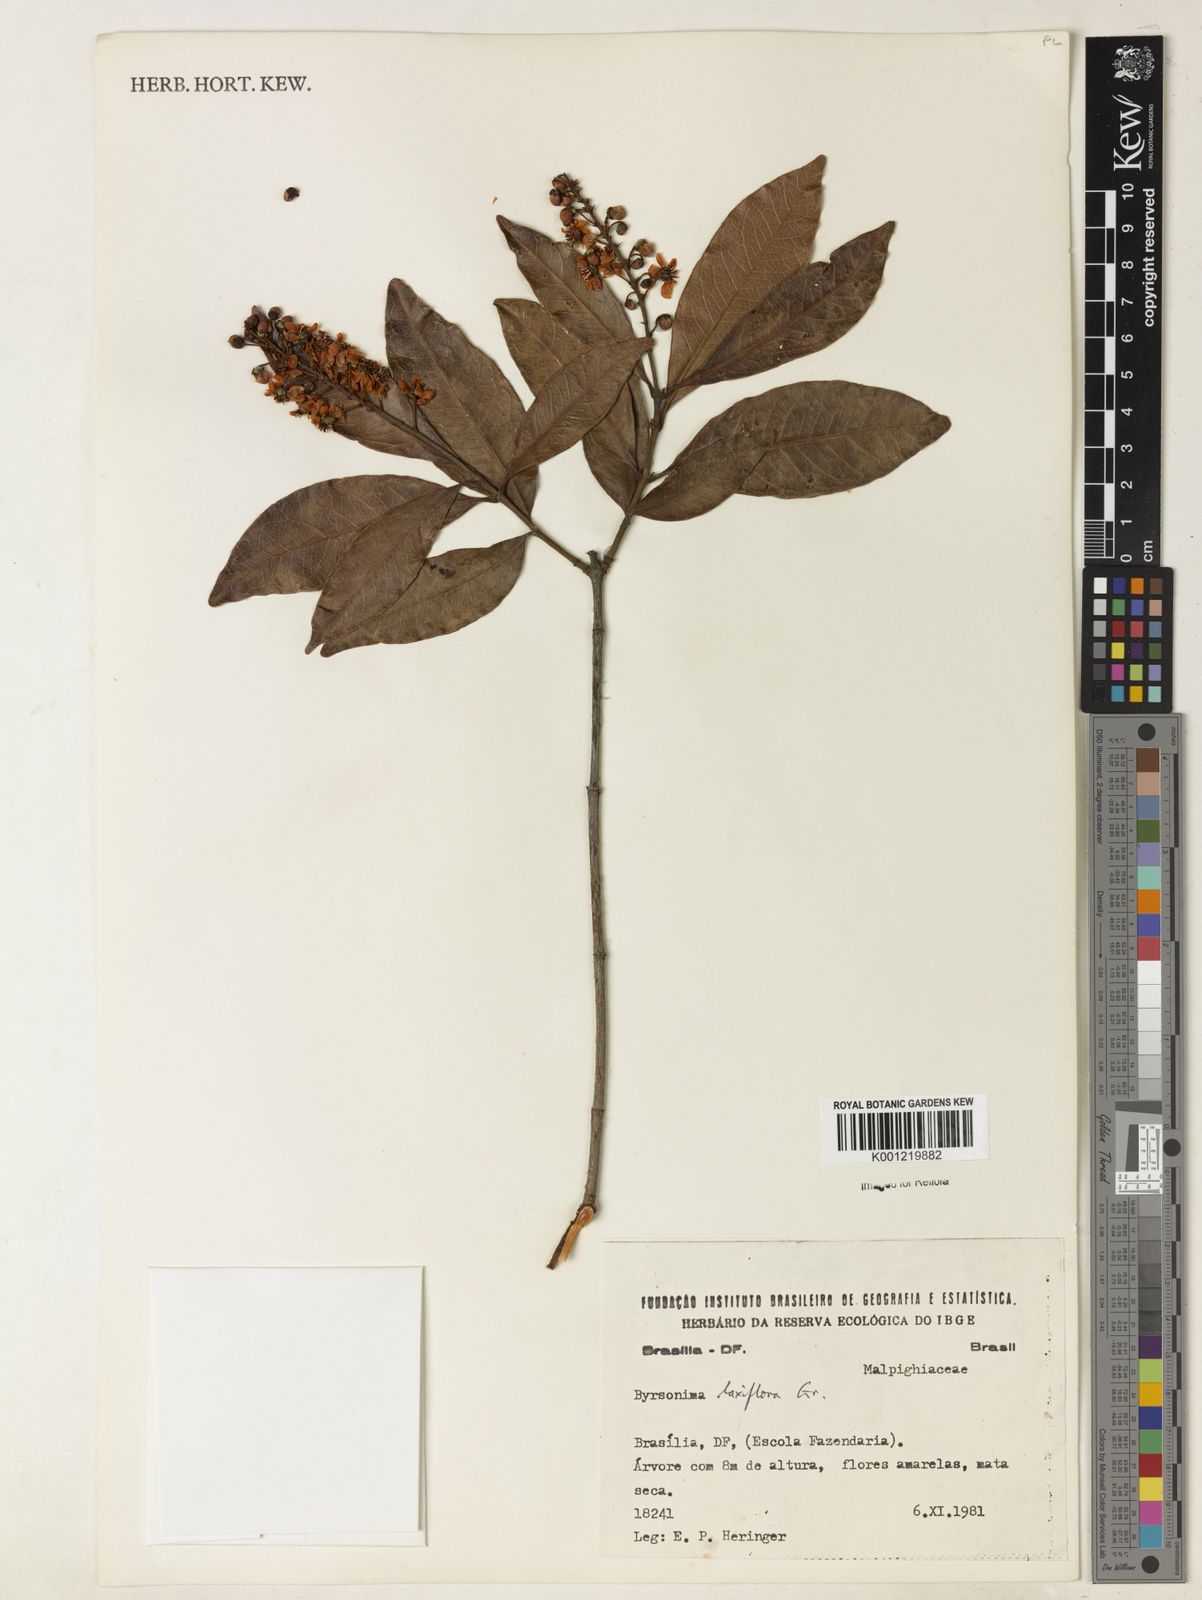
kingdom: Plantae
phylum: Tracheophyta
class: Magnoliopsida
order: Malpighiales
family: Malpighiaceae
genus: Byrsonima
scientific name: Byrsonima laxiflora
